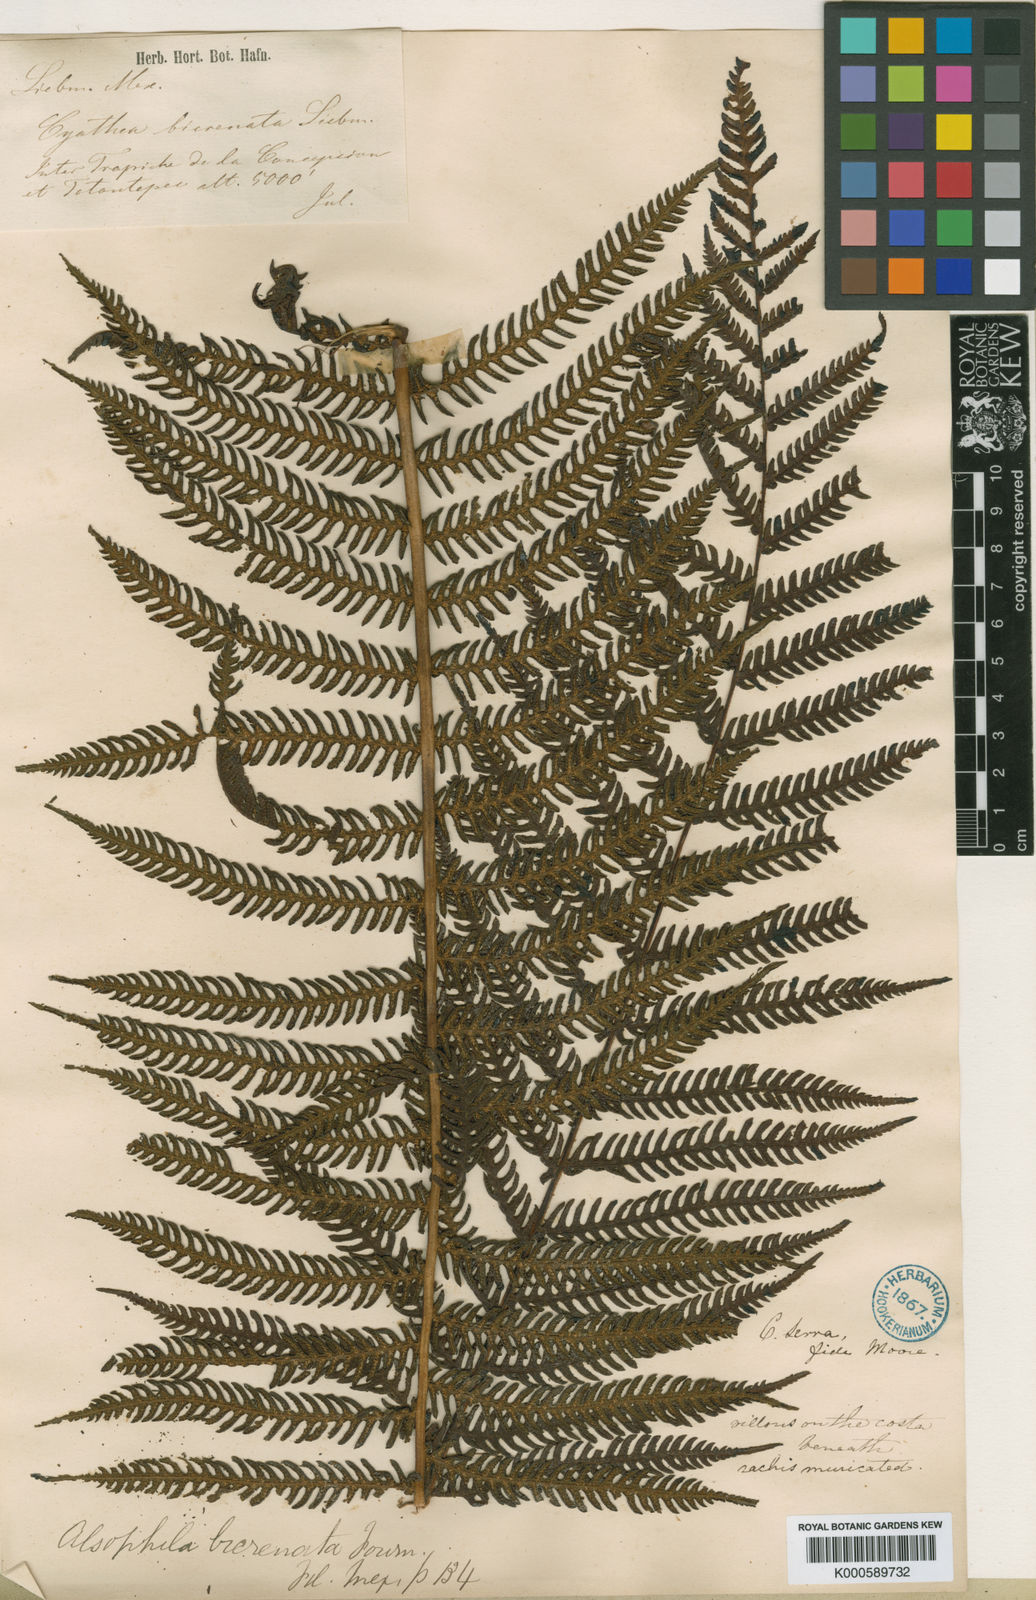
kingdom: Plantae
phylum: Tracheophyta
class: Polypodiopsida
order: Cyatheales
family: Cyatheaceae
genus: Cyathea
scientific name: Cyathea bicrenata
